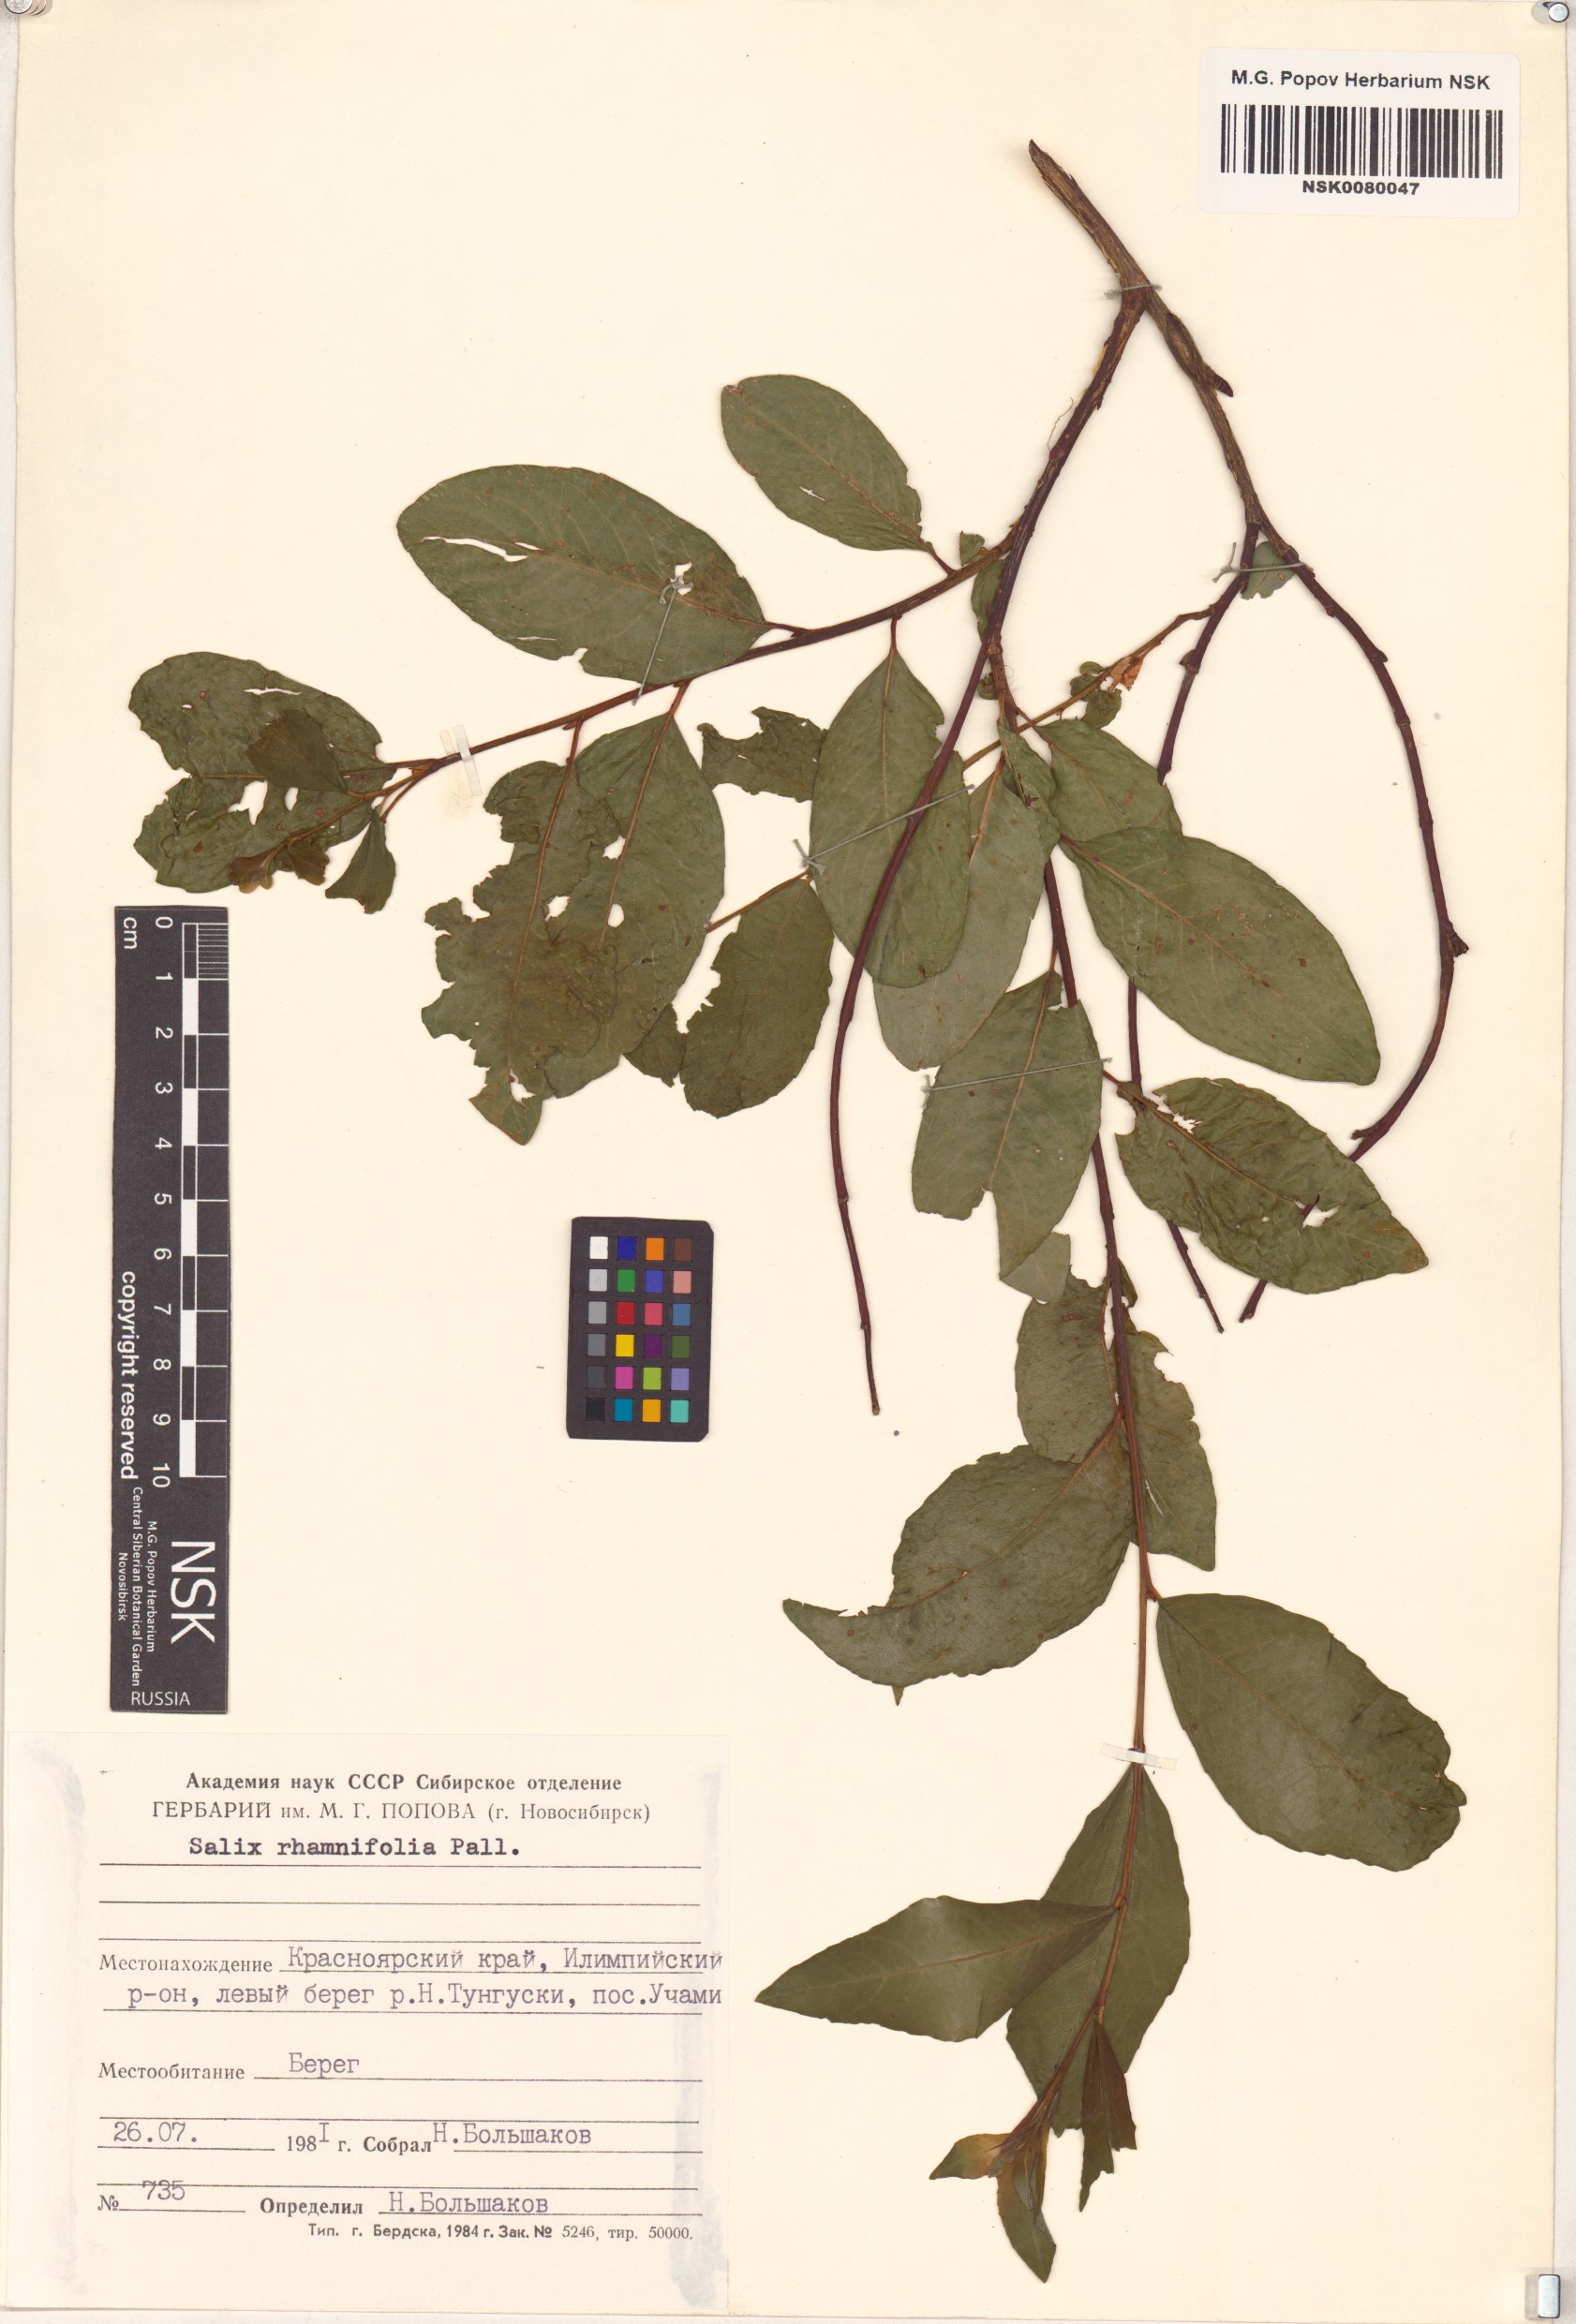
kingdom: Plantae
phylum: Tracheophyta
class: Magnoliopsida
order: Malpighiales
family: Salicaceae
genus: Salix
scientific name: Salix rhamnifolia
